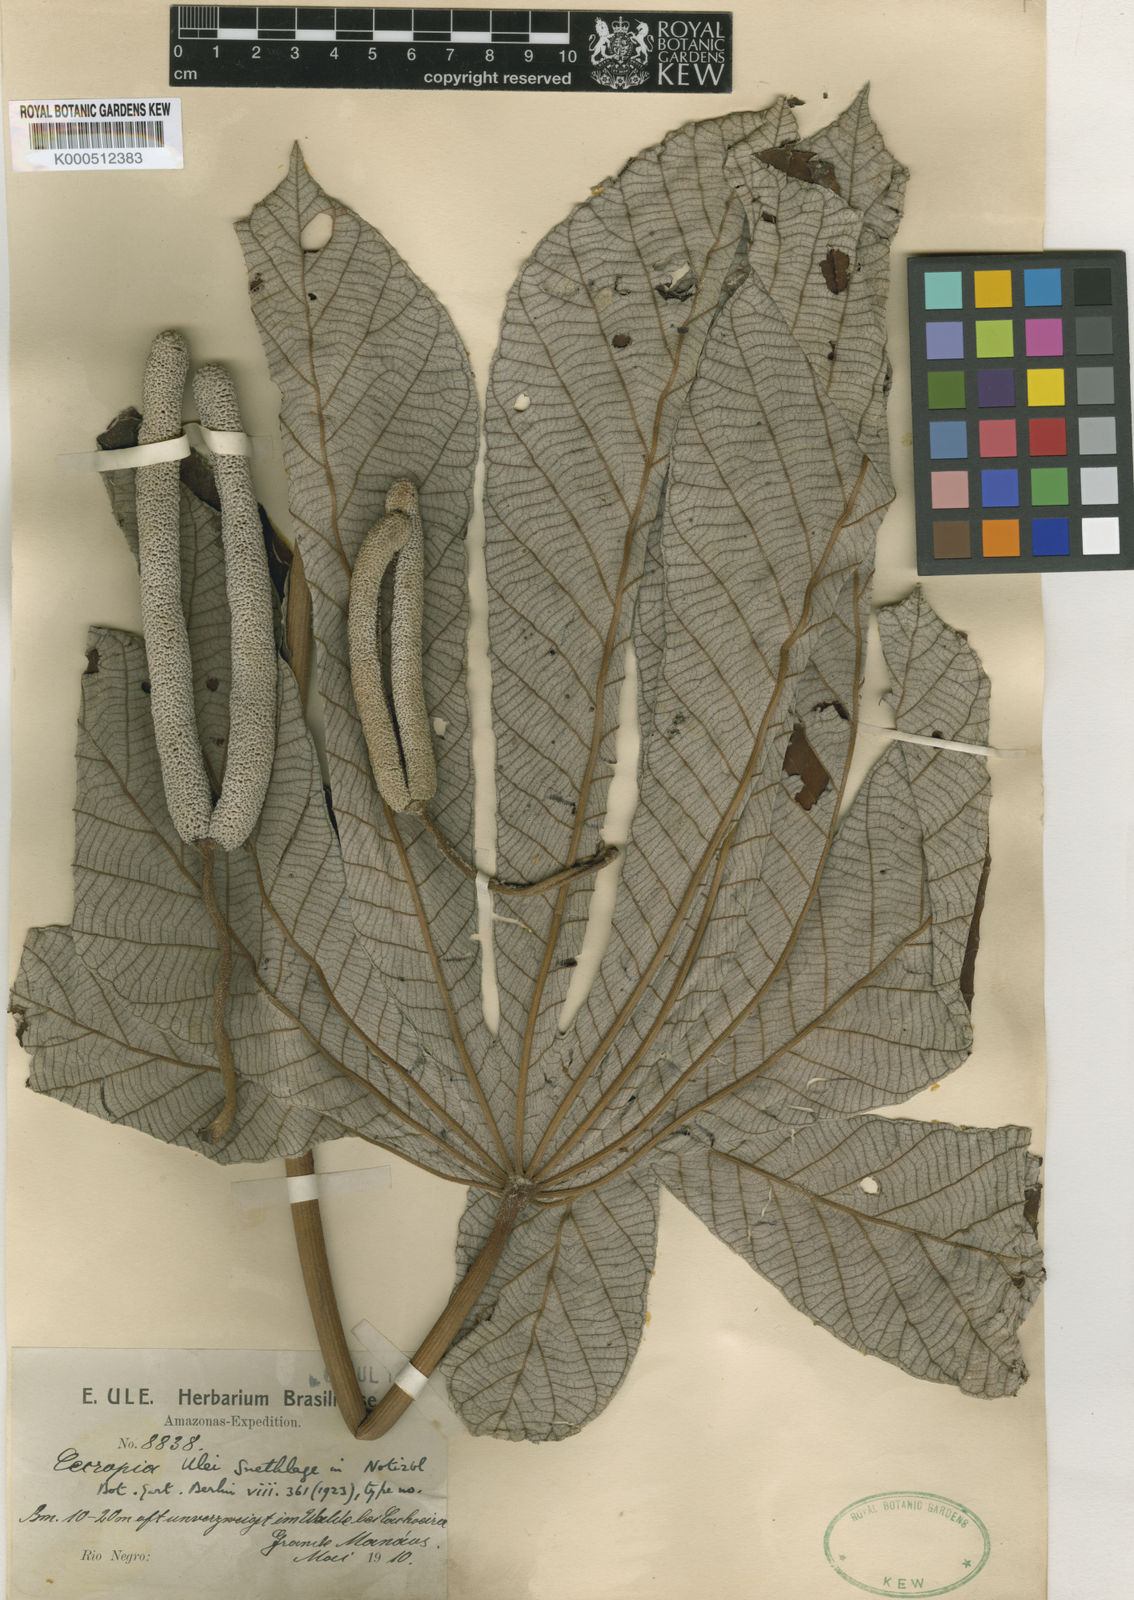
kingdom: Plantae
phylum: Tracheophyta
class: Magnoliopsida
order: Rosales
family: Urticaceae
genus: Cecropia
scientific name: Cecropia ulei
